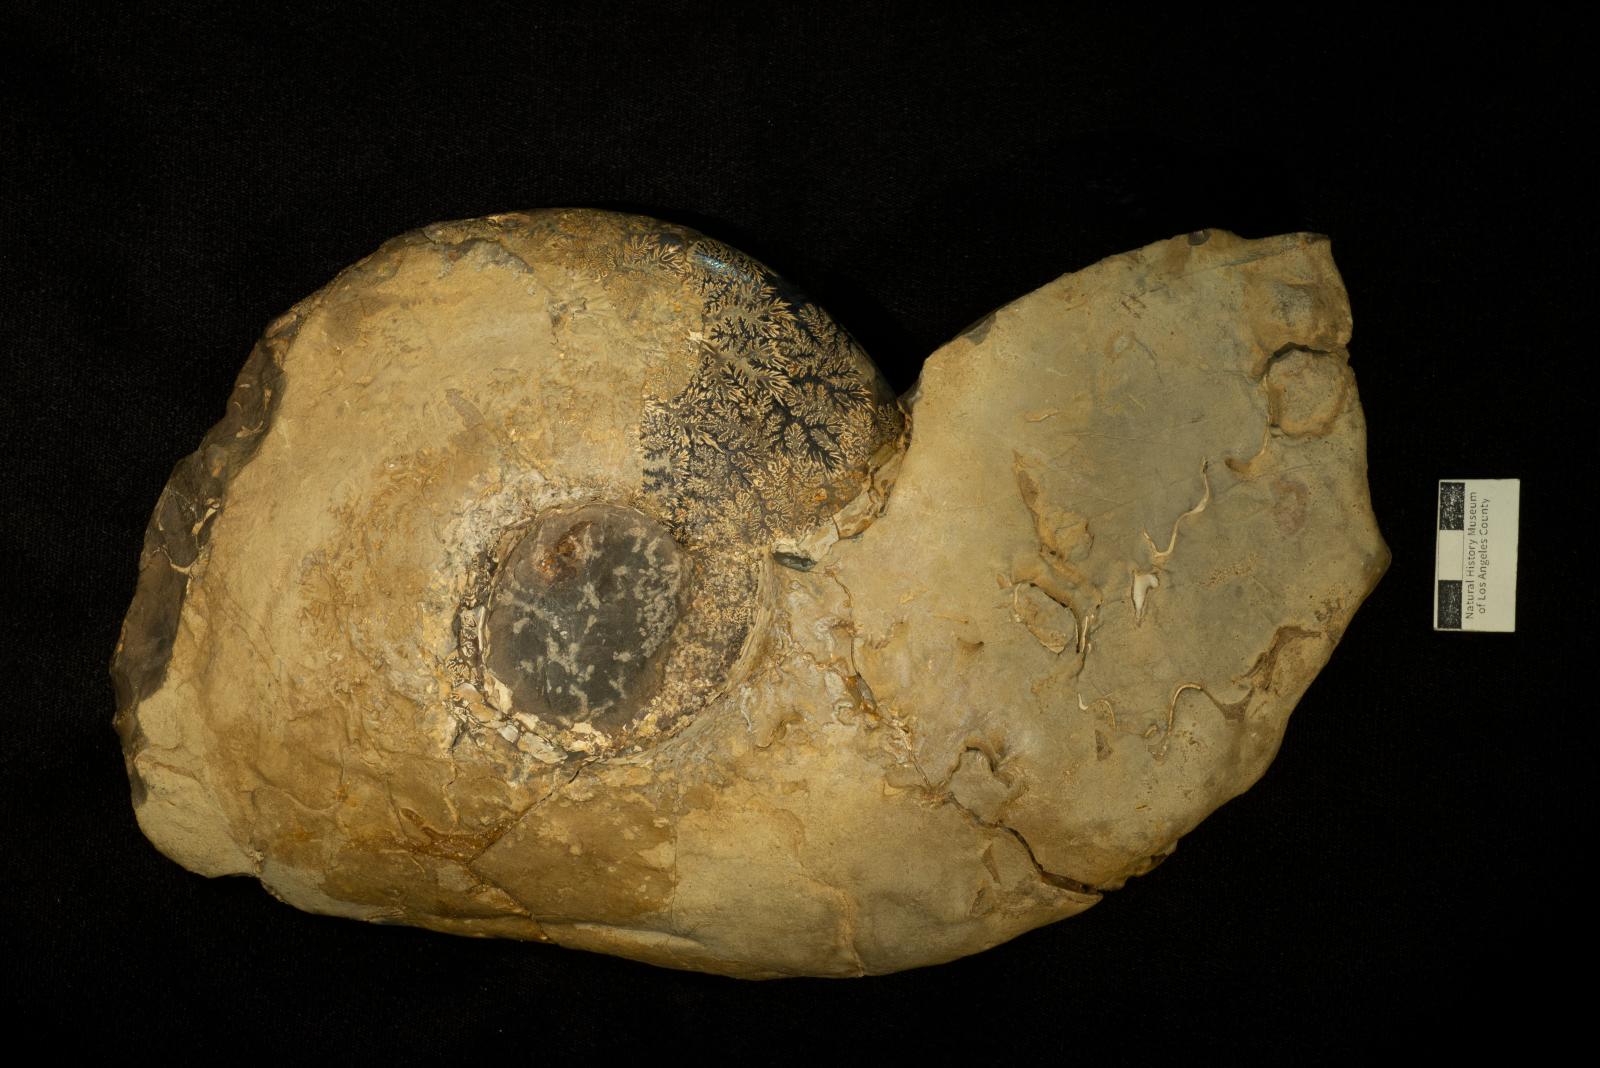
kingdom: Animalia
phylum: Mollusca
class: Bivalvia
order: Cardiida
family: Icanotiidae
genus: Icanotia
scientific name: Icanotia
